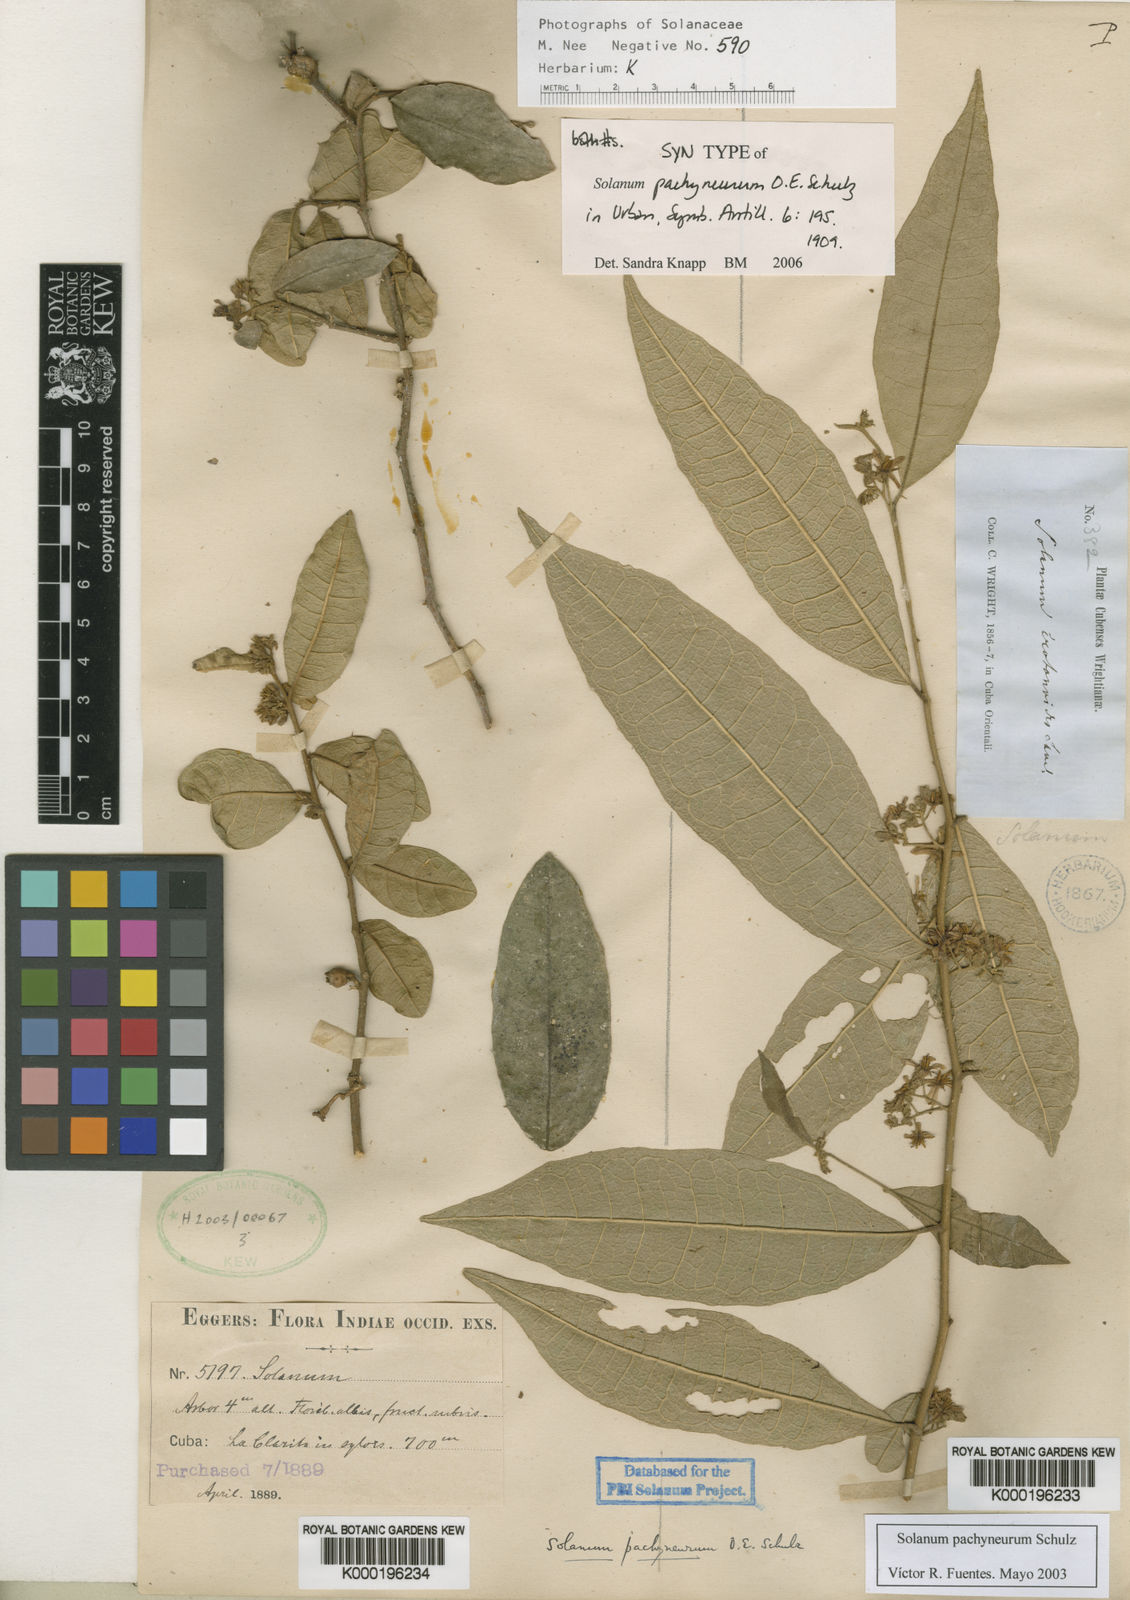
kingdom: Plantae
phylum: Tracheophyta
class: Magnoliopsida
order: Solanales
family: Solanaceae
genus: Solanum
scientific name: Solanum pachyneurum
